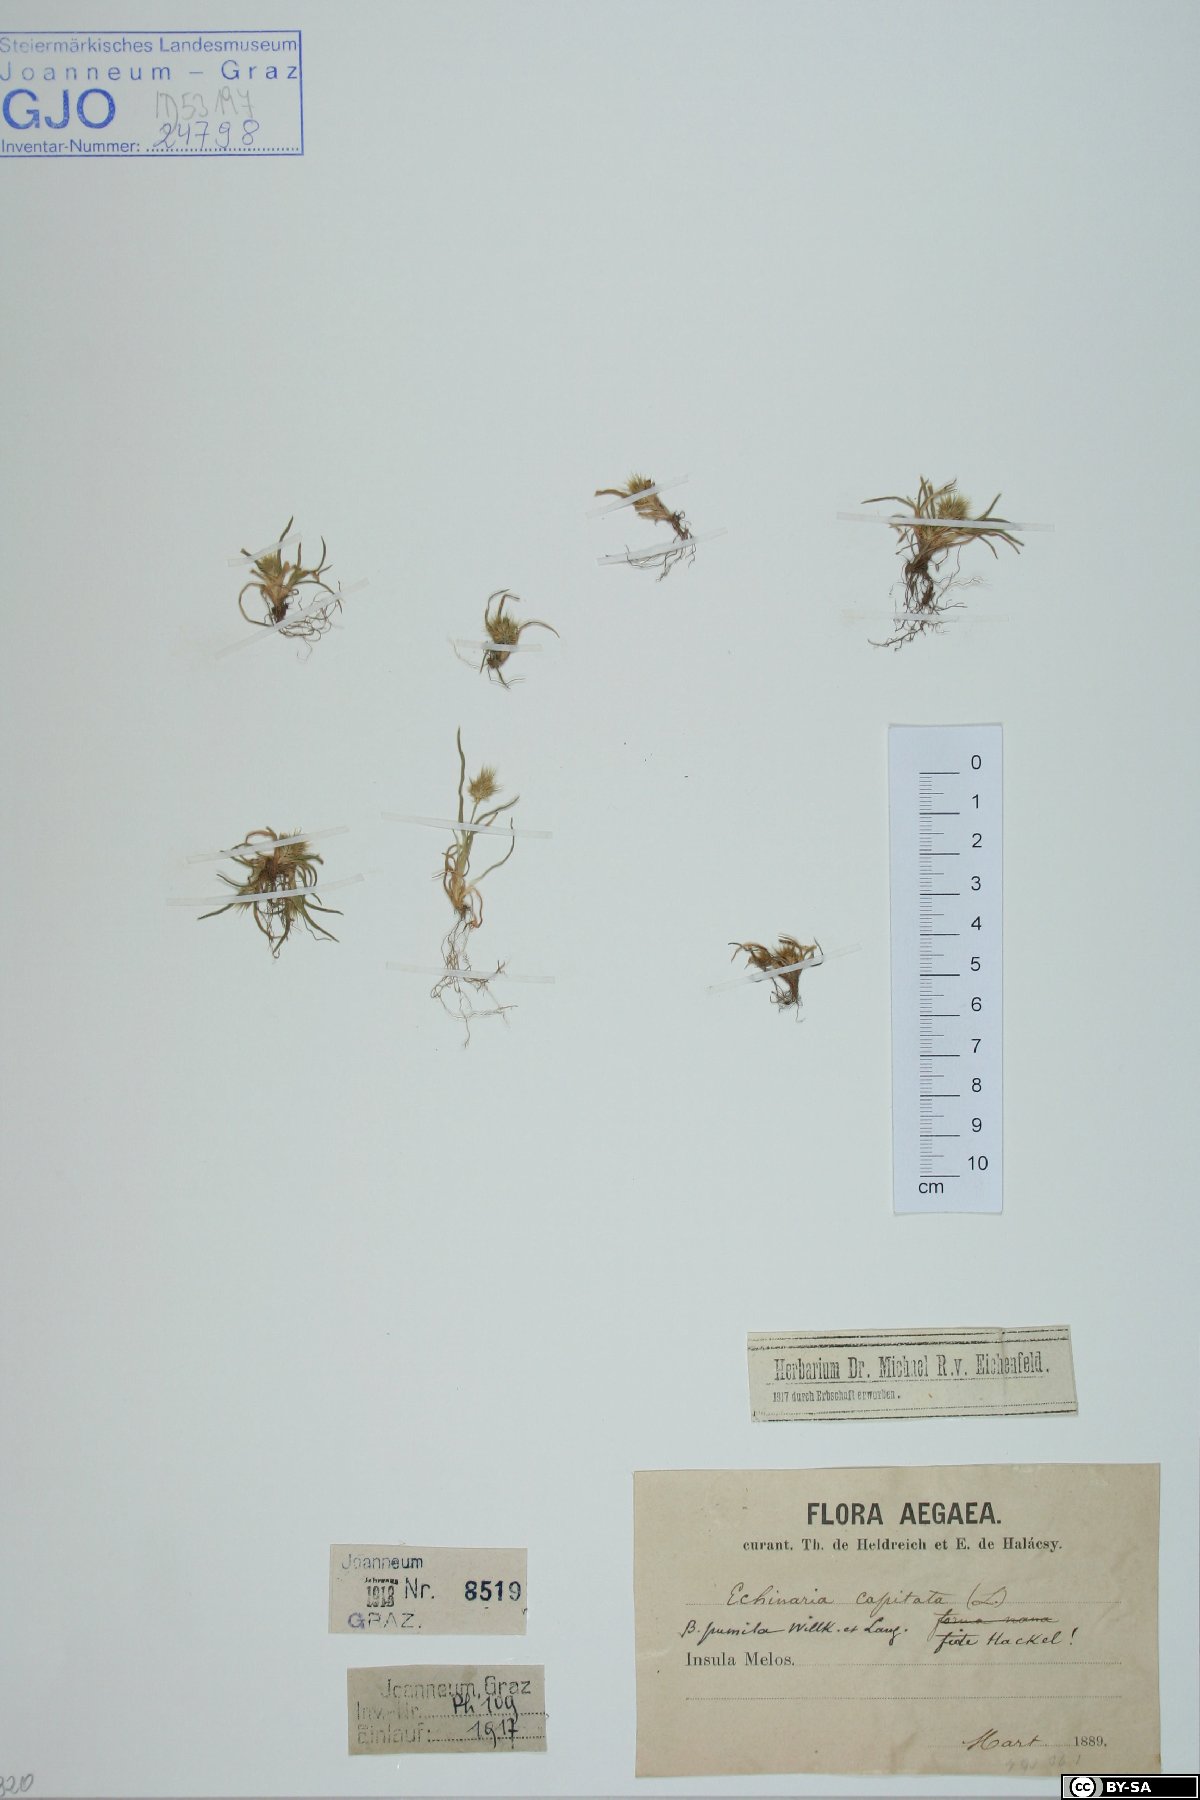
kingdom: Plantae
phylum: Tracheophyta
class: Liliopsida
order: Poales
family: Poaceae
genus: Echinaria
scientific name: Echinaria capitata
